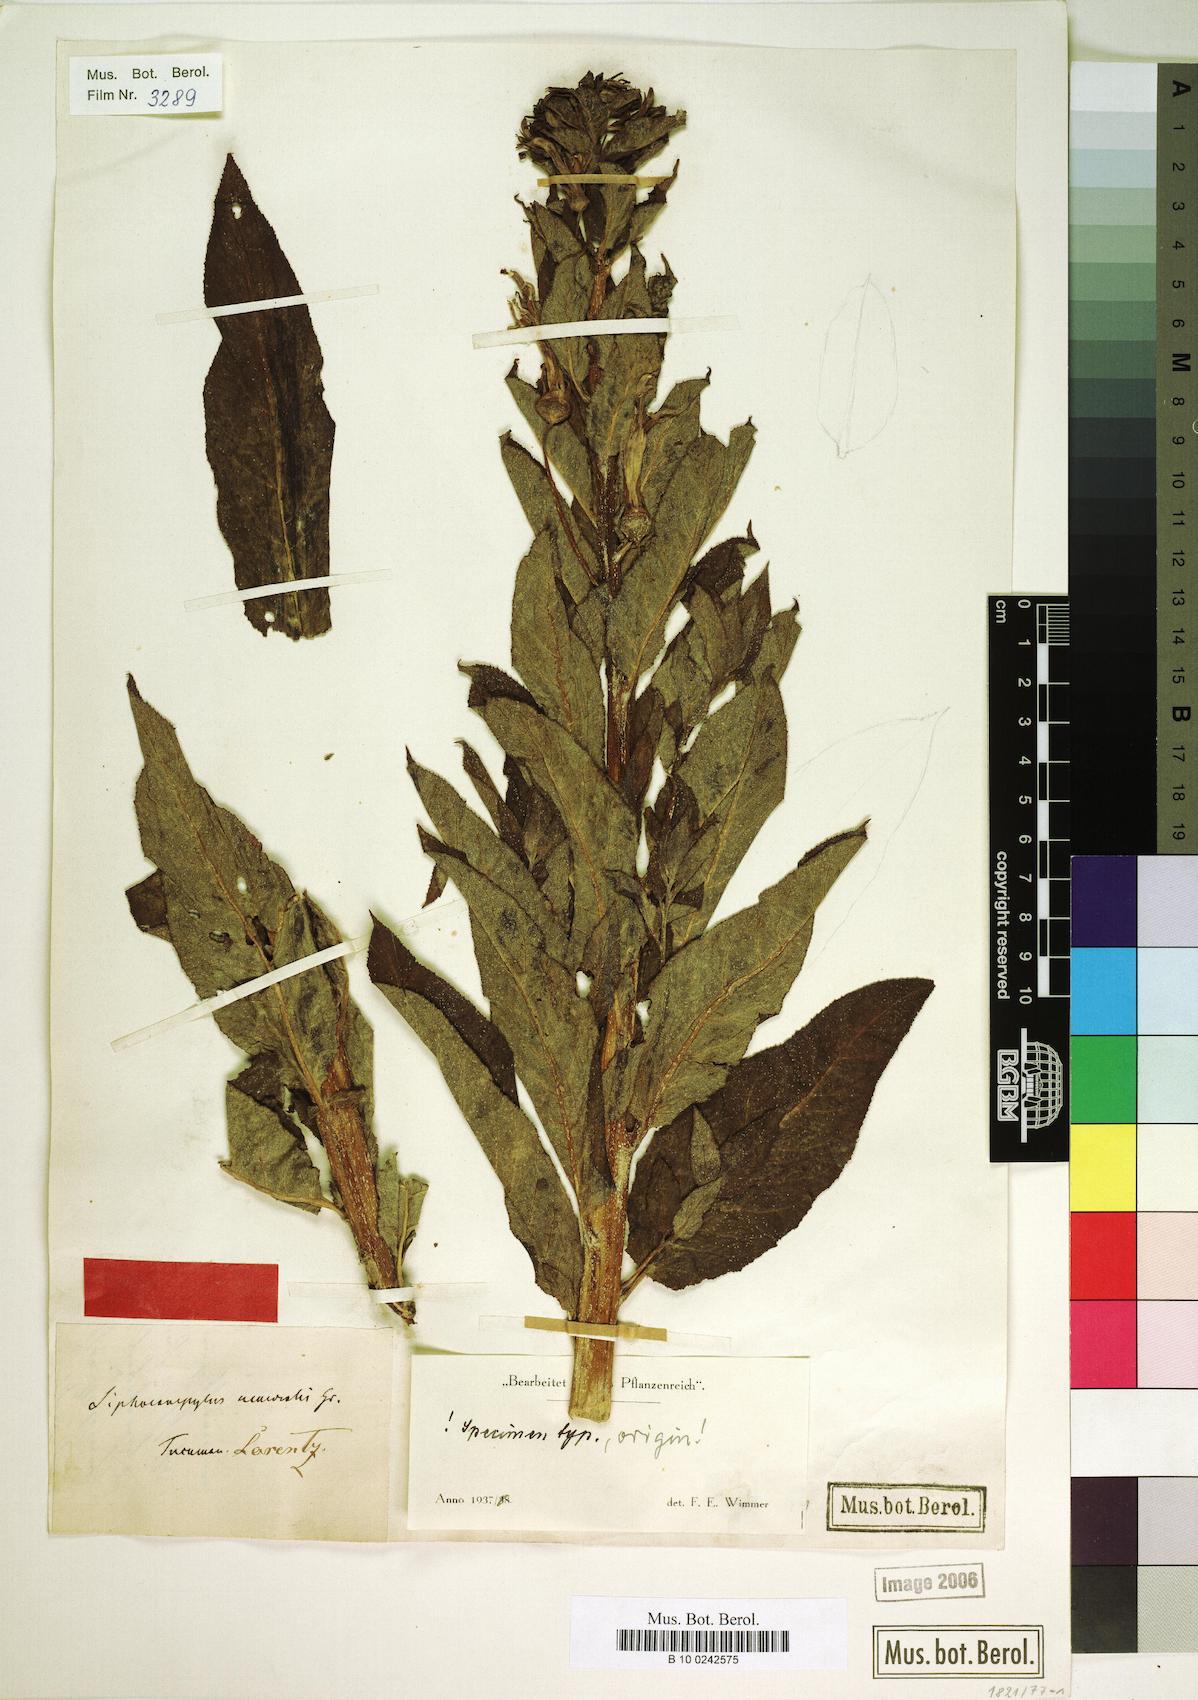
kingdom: Plantae
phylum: Tracheophyta
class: Magnoliopsida
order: Asterales
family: Campanulaceae
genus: Siphocampylus
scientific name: Siphocampylus nemoralis
